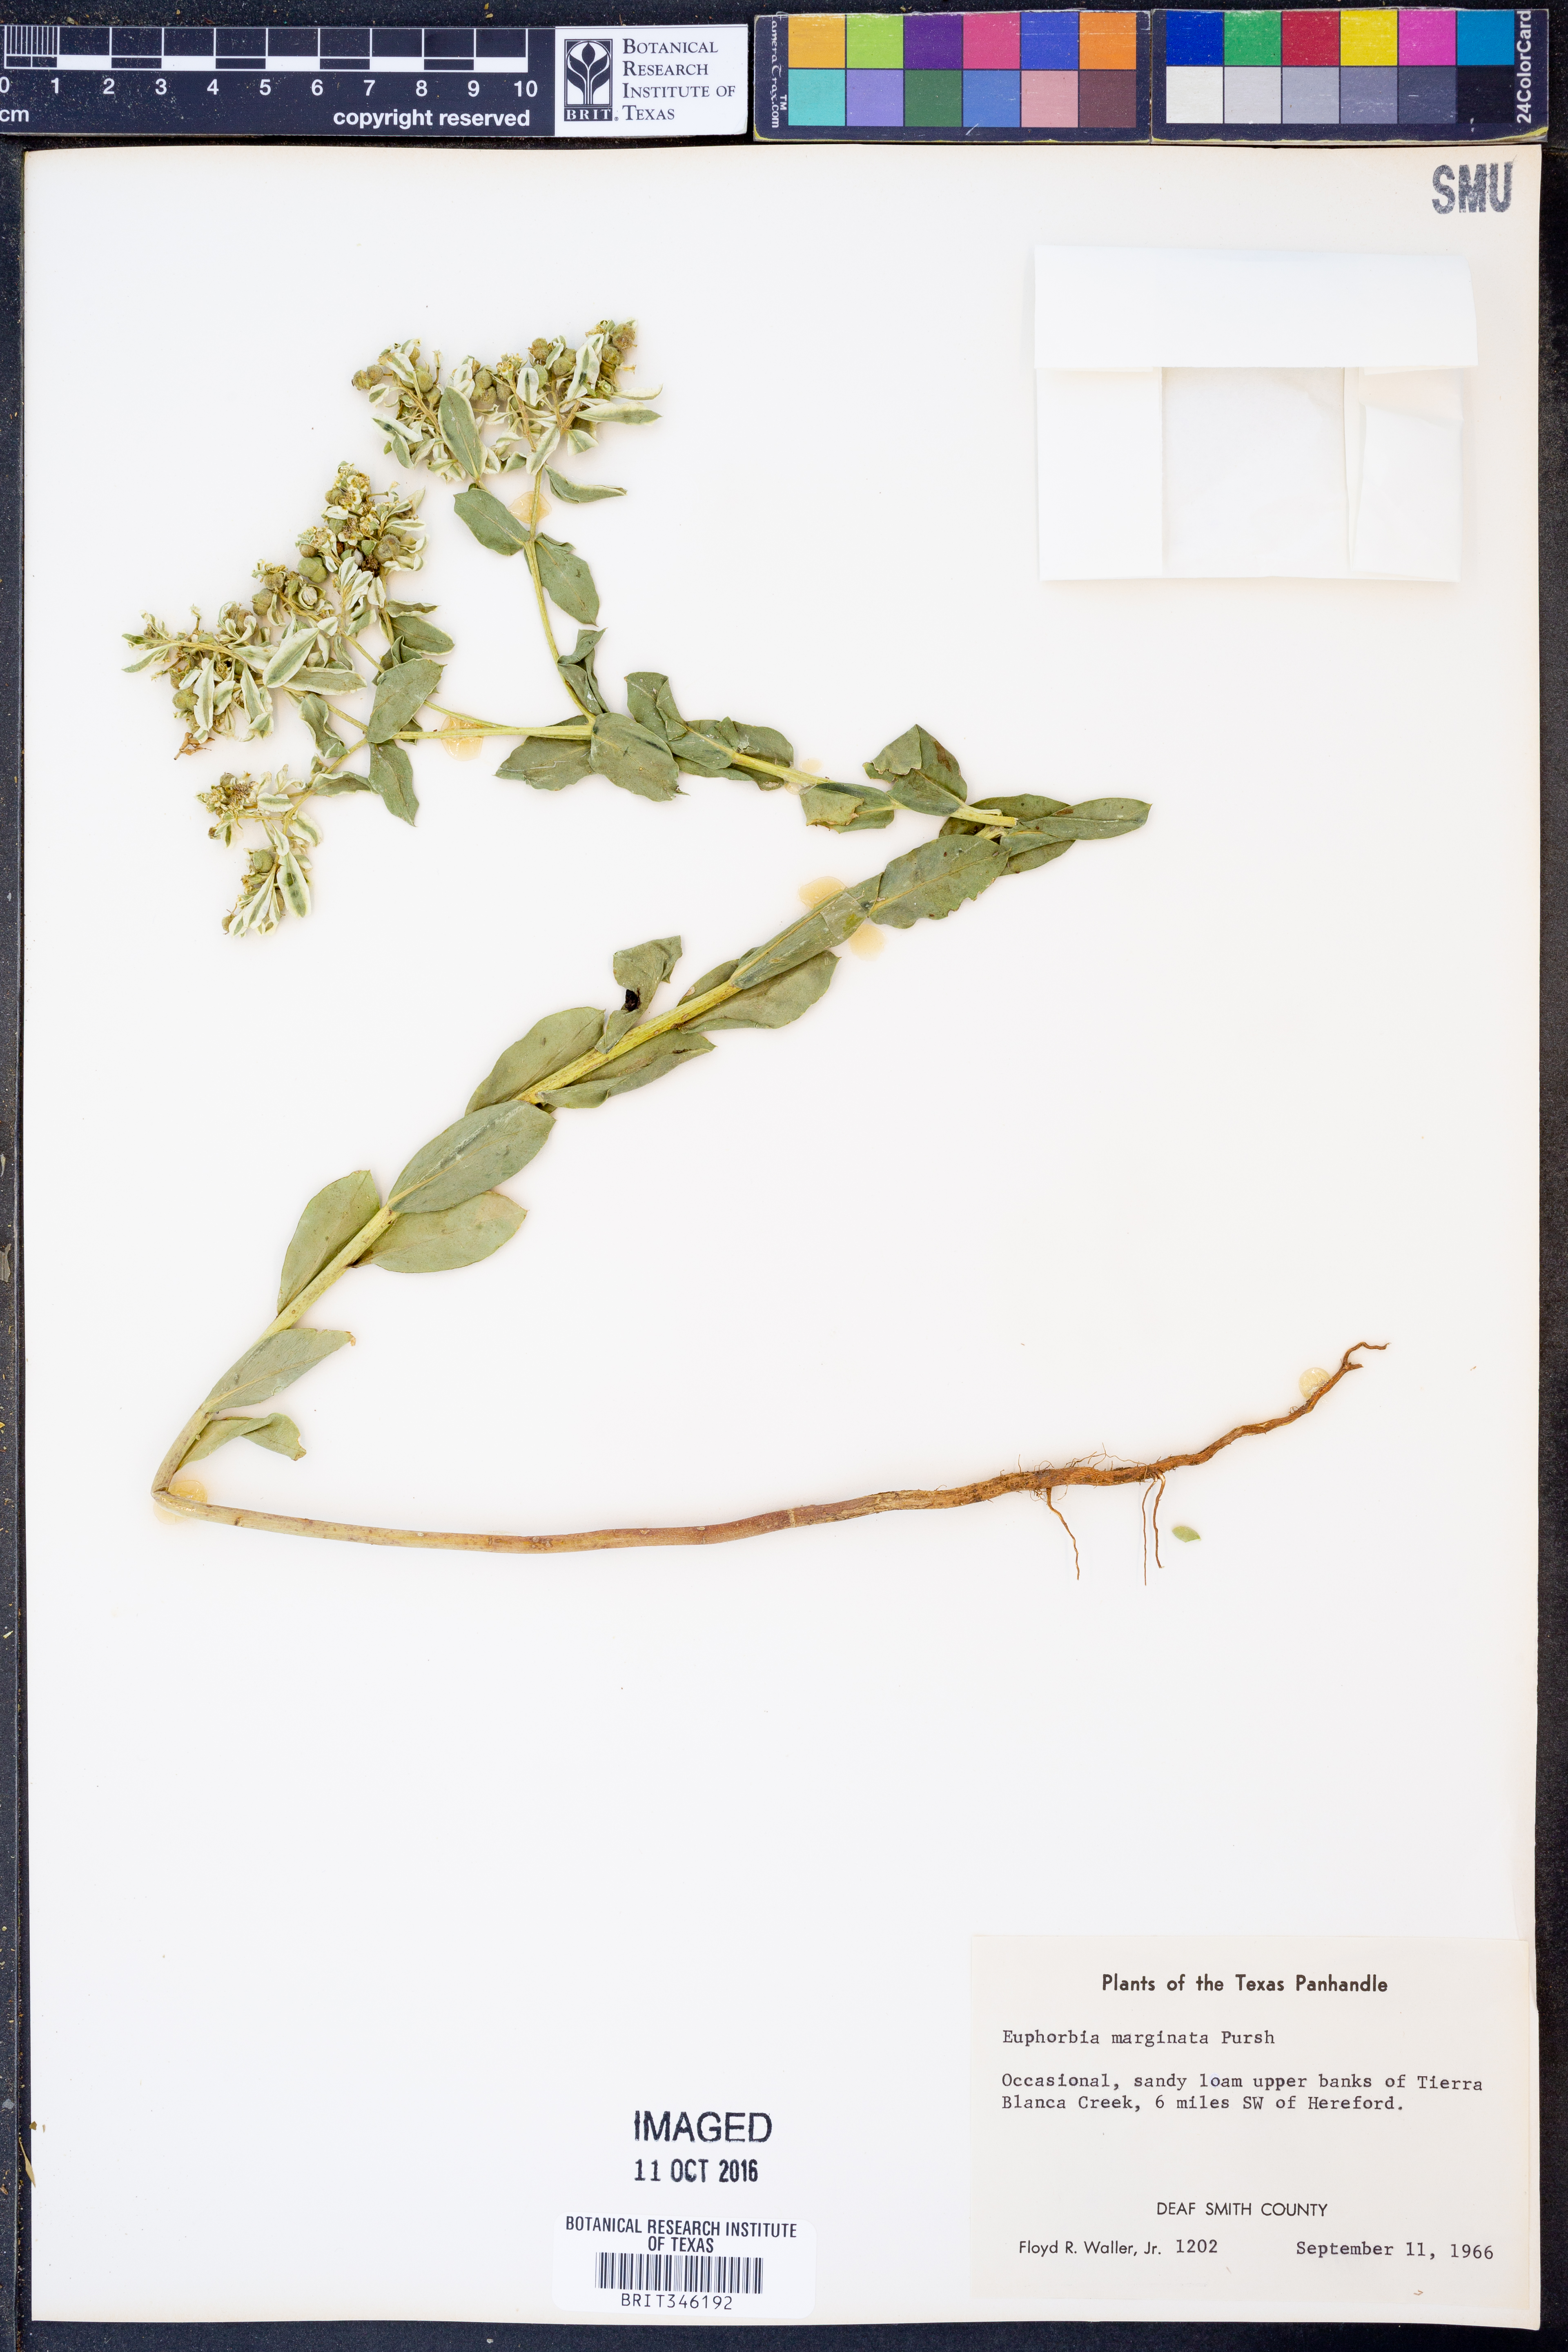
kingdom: Plantae
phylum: Tracheophyta
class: Magnoliopsida
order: Malpighiales
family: Euphorbiaceae
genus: Euphorbia
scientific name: Euphorbia marginata
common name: Ghostweed
